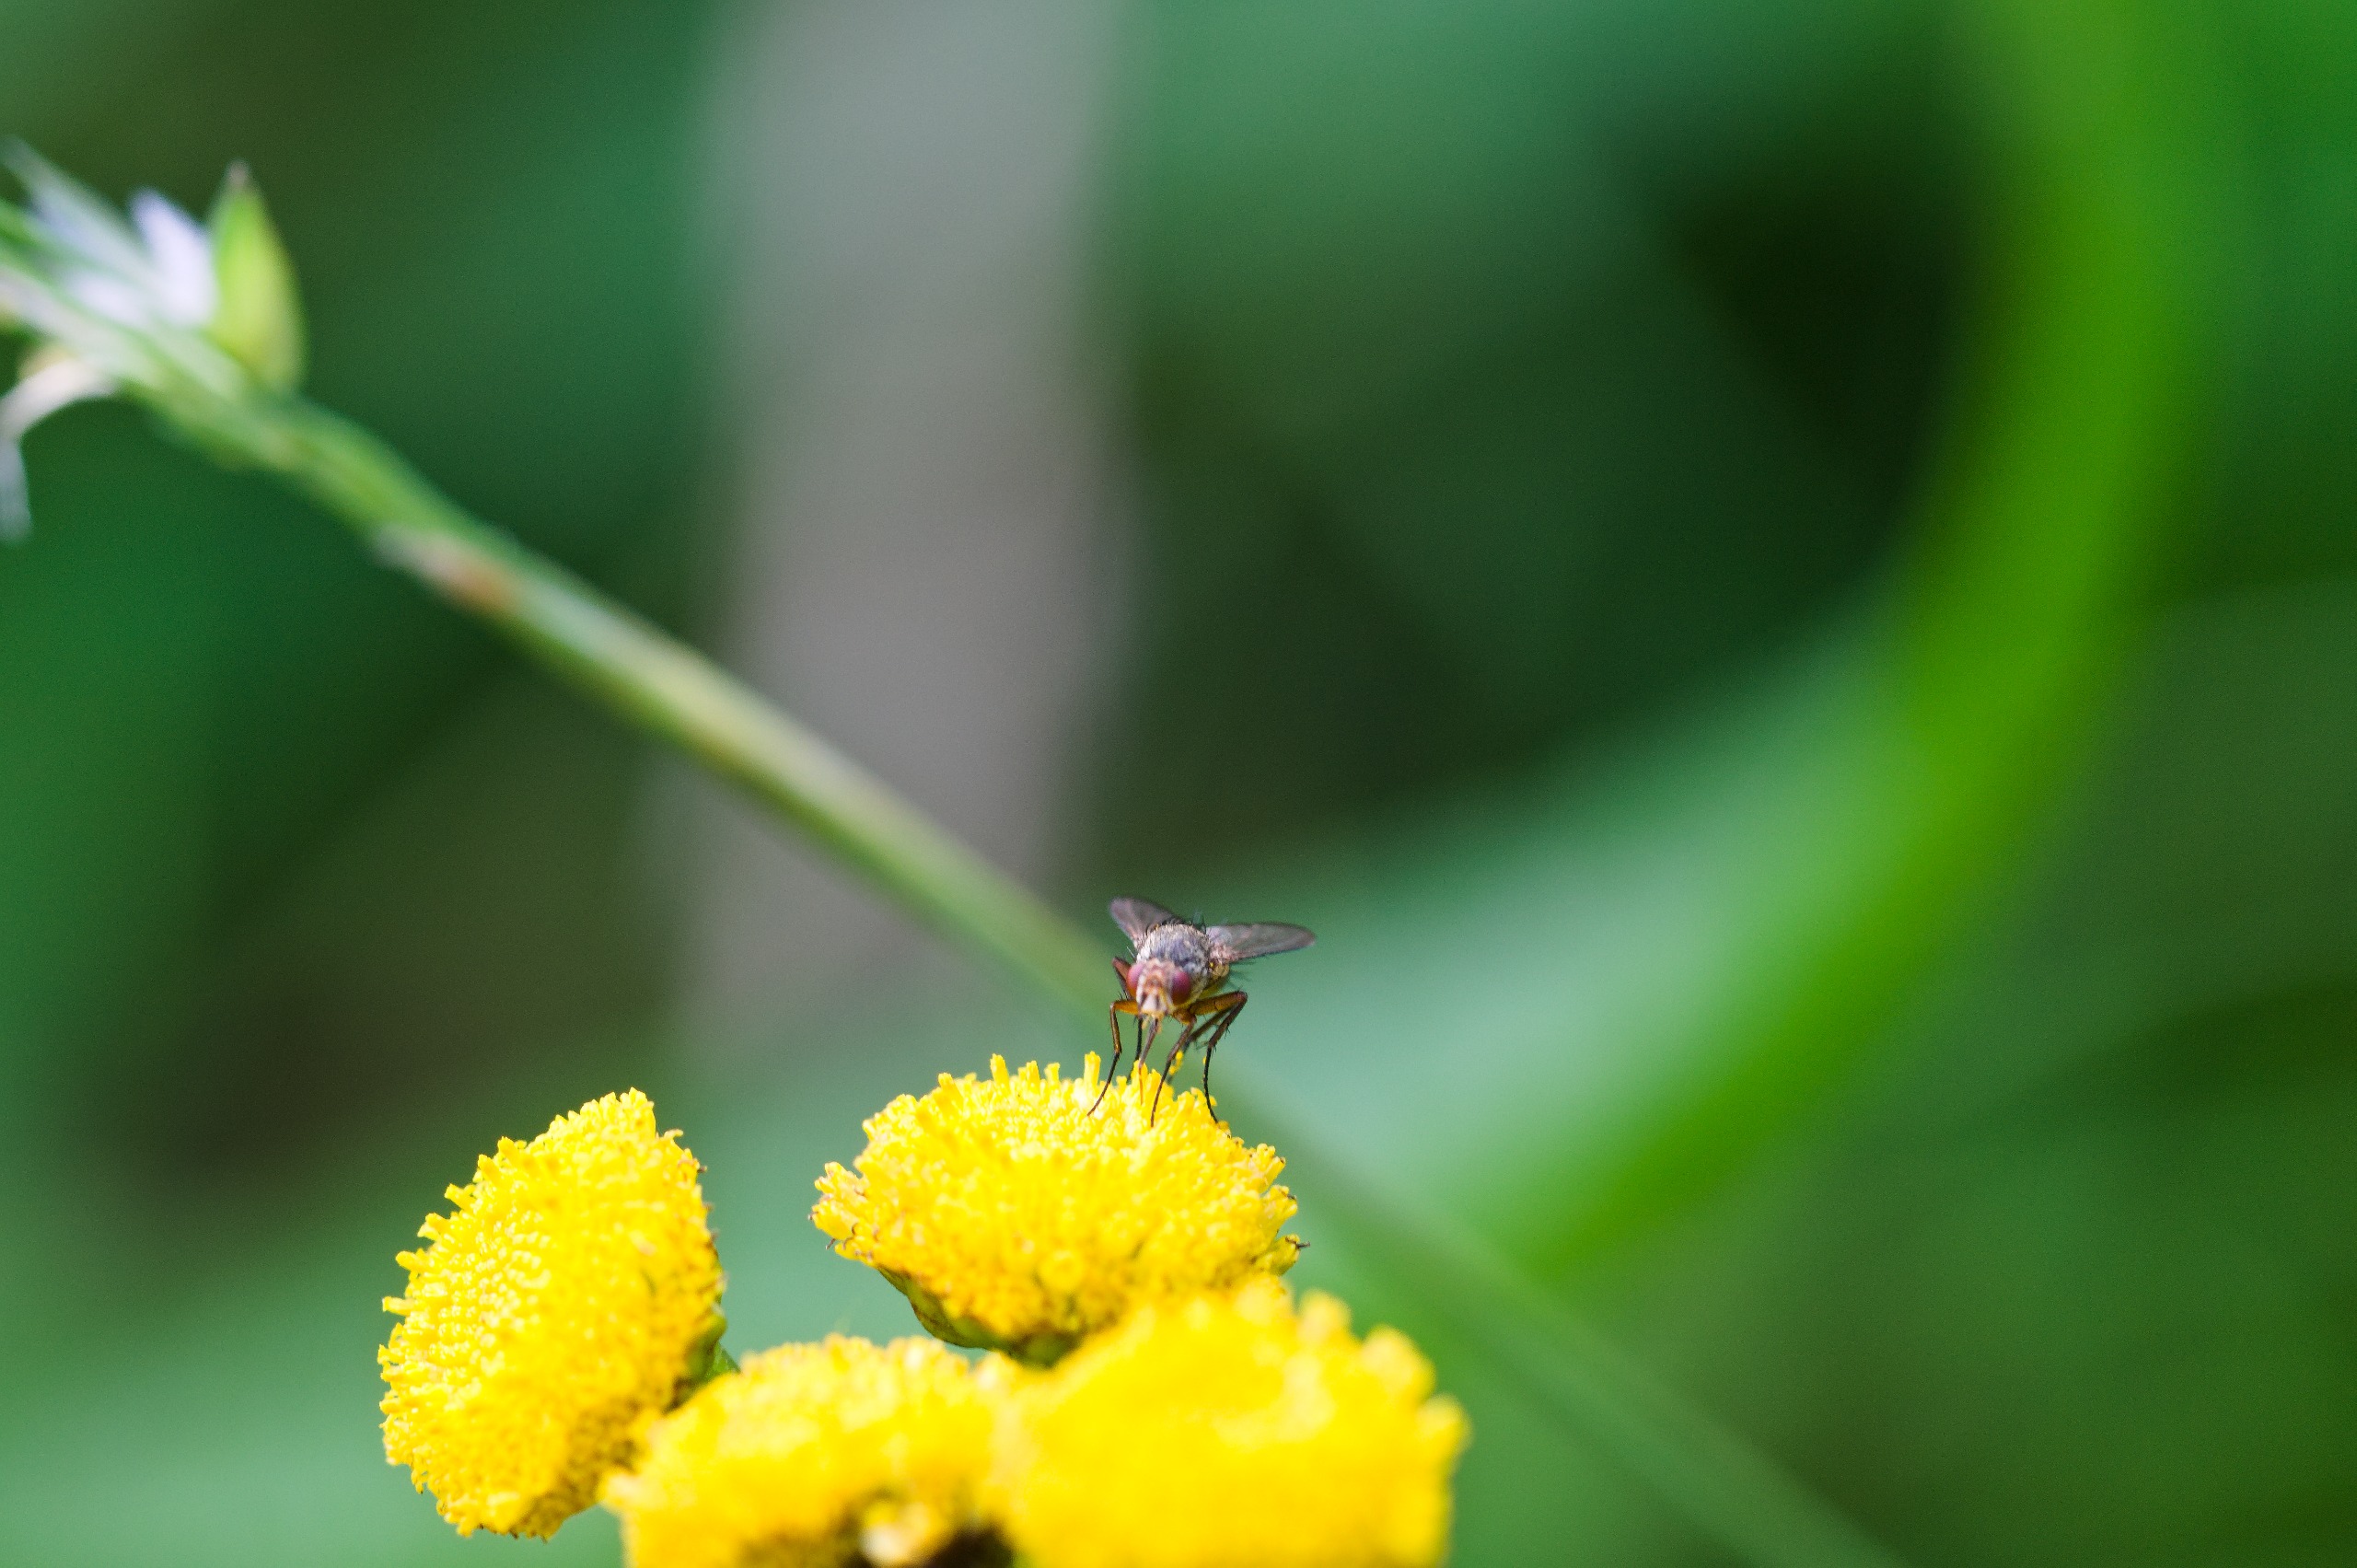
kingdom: Animalia
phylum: Arthropoda
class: Insecta
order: Diptera
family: Tachinidae
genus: Siphona
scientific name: Siphona
